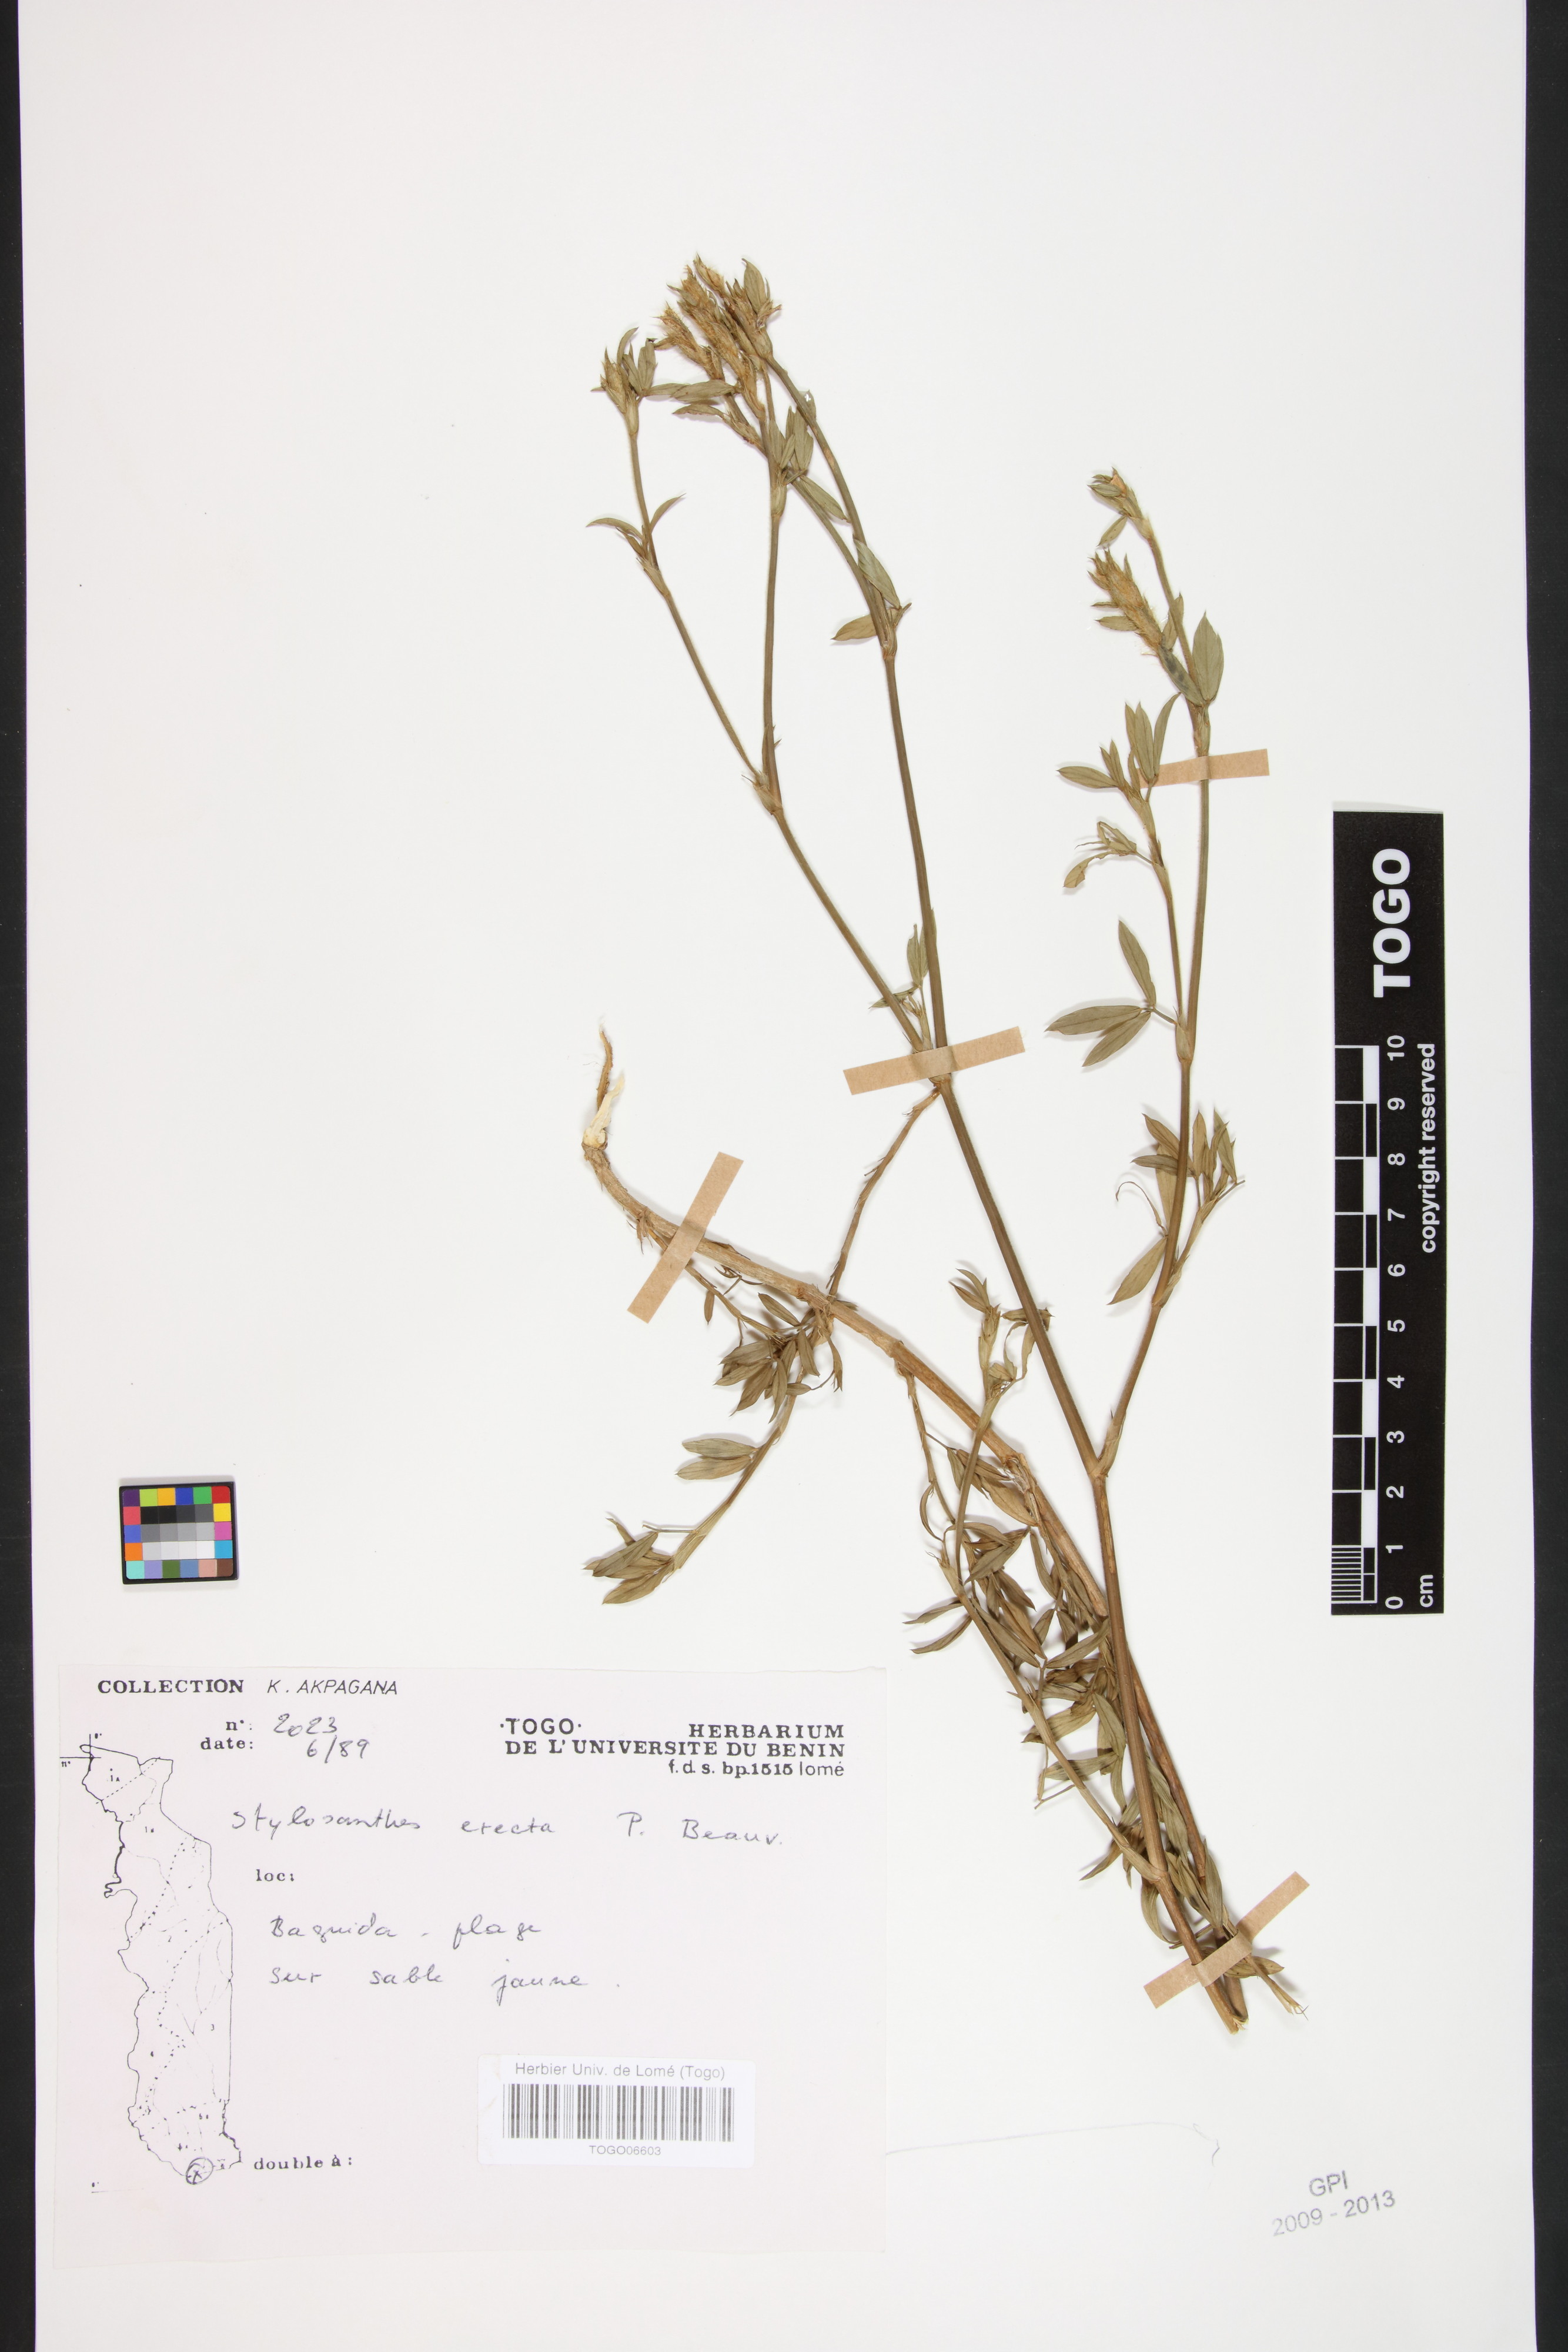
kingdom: Plantae
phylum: Tracheophyta
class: Magnoliopsida
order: Fabales
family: Fabaceae
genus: Stylosanthes
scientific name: Stylosanthes erecta
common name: Nigerian stylo
